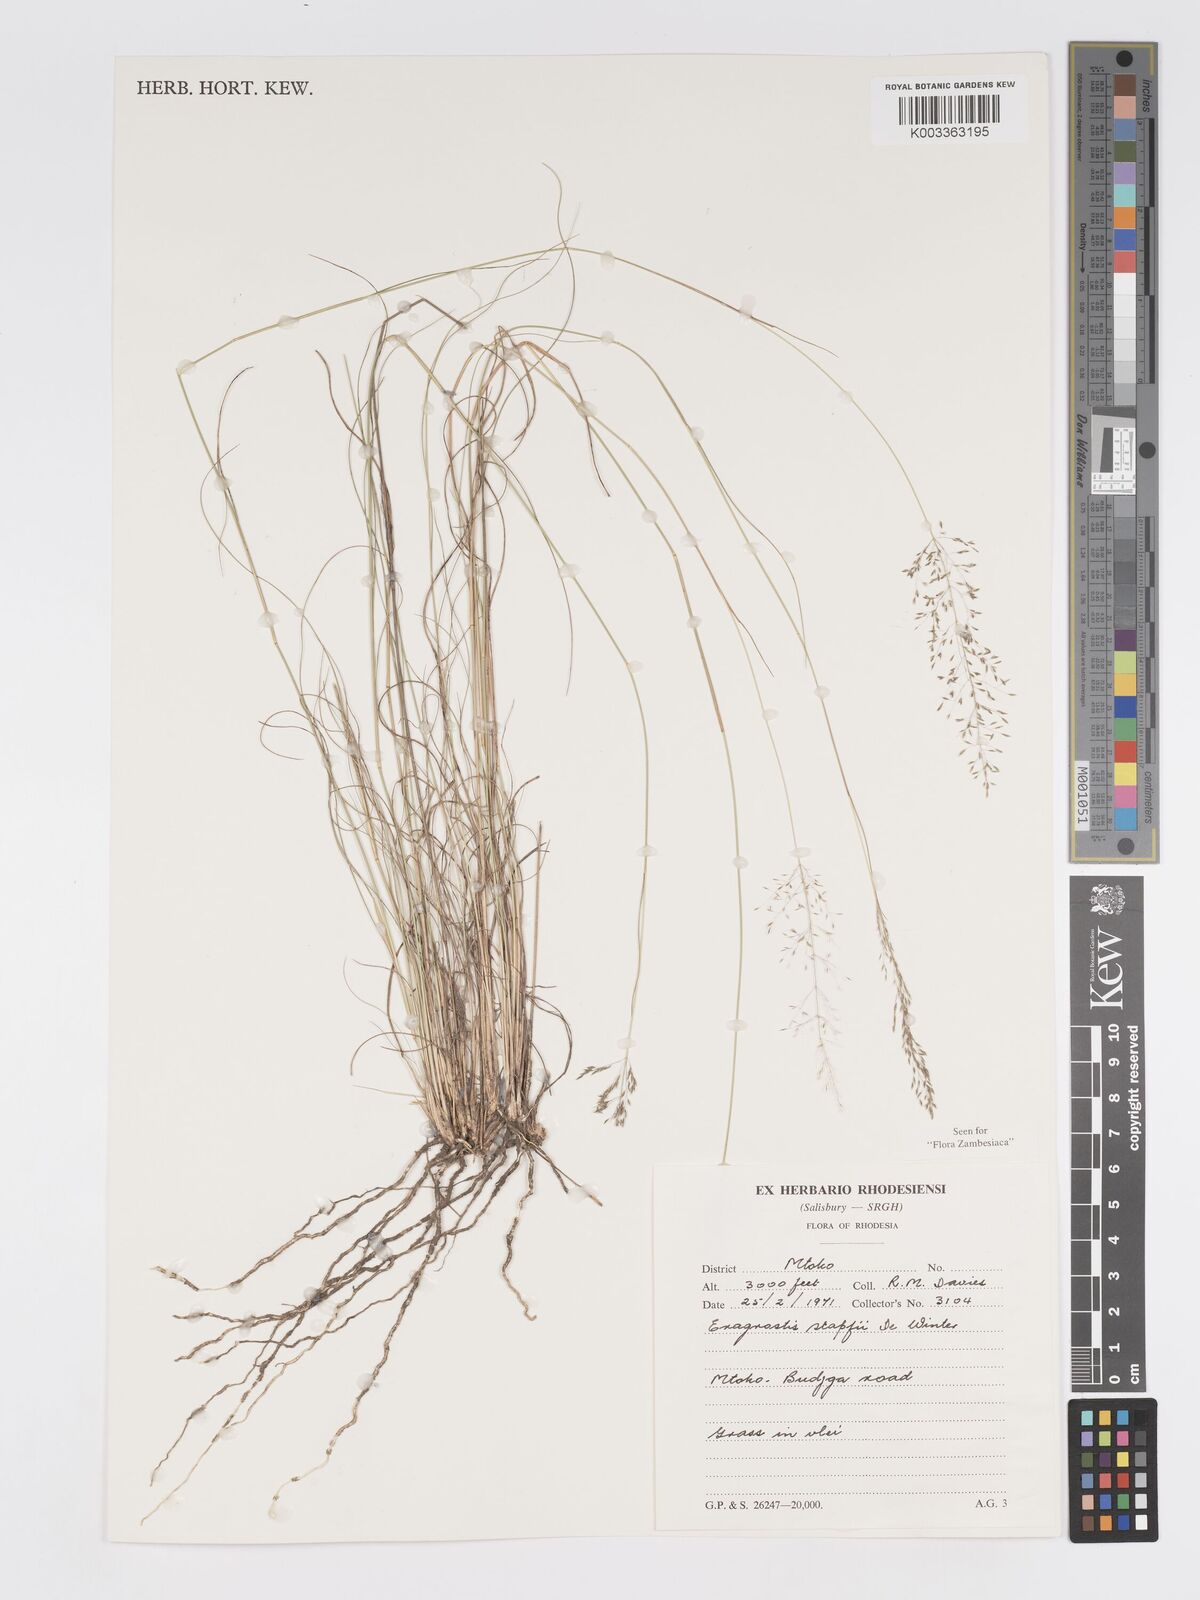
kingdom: Plantae
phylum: Tracheophyta
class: Liliopsida
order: Poales
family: Poaceae
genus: Eragrostis
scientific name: Eragrostis stapfii
